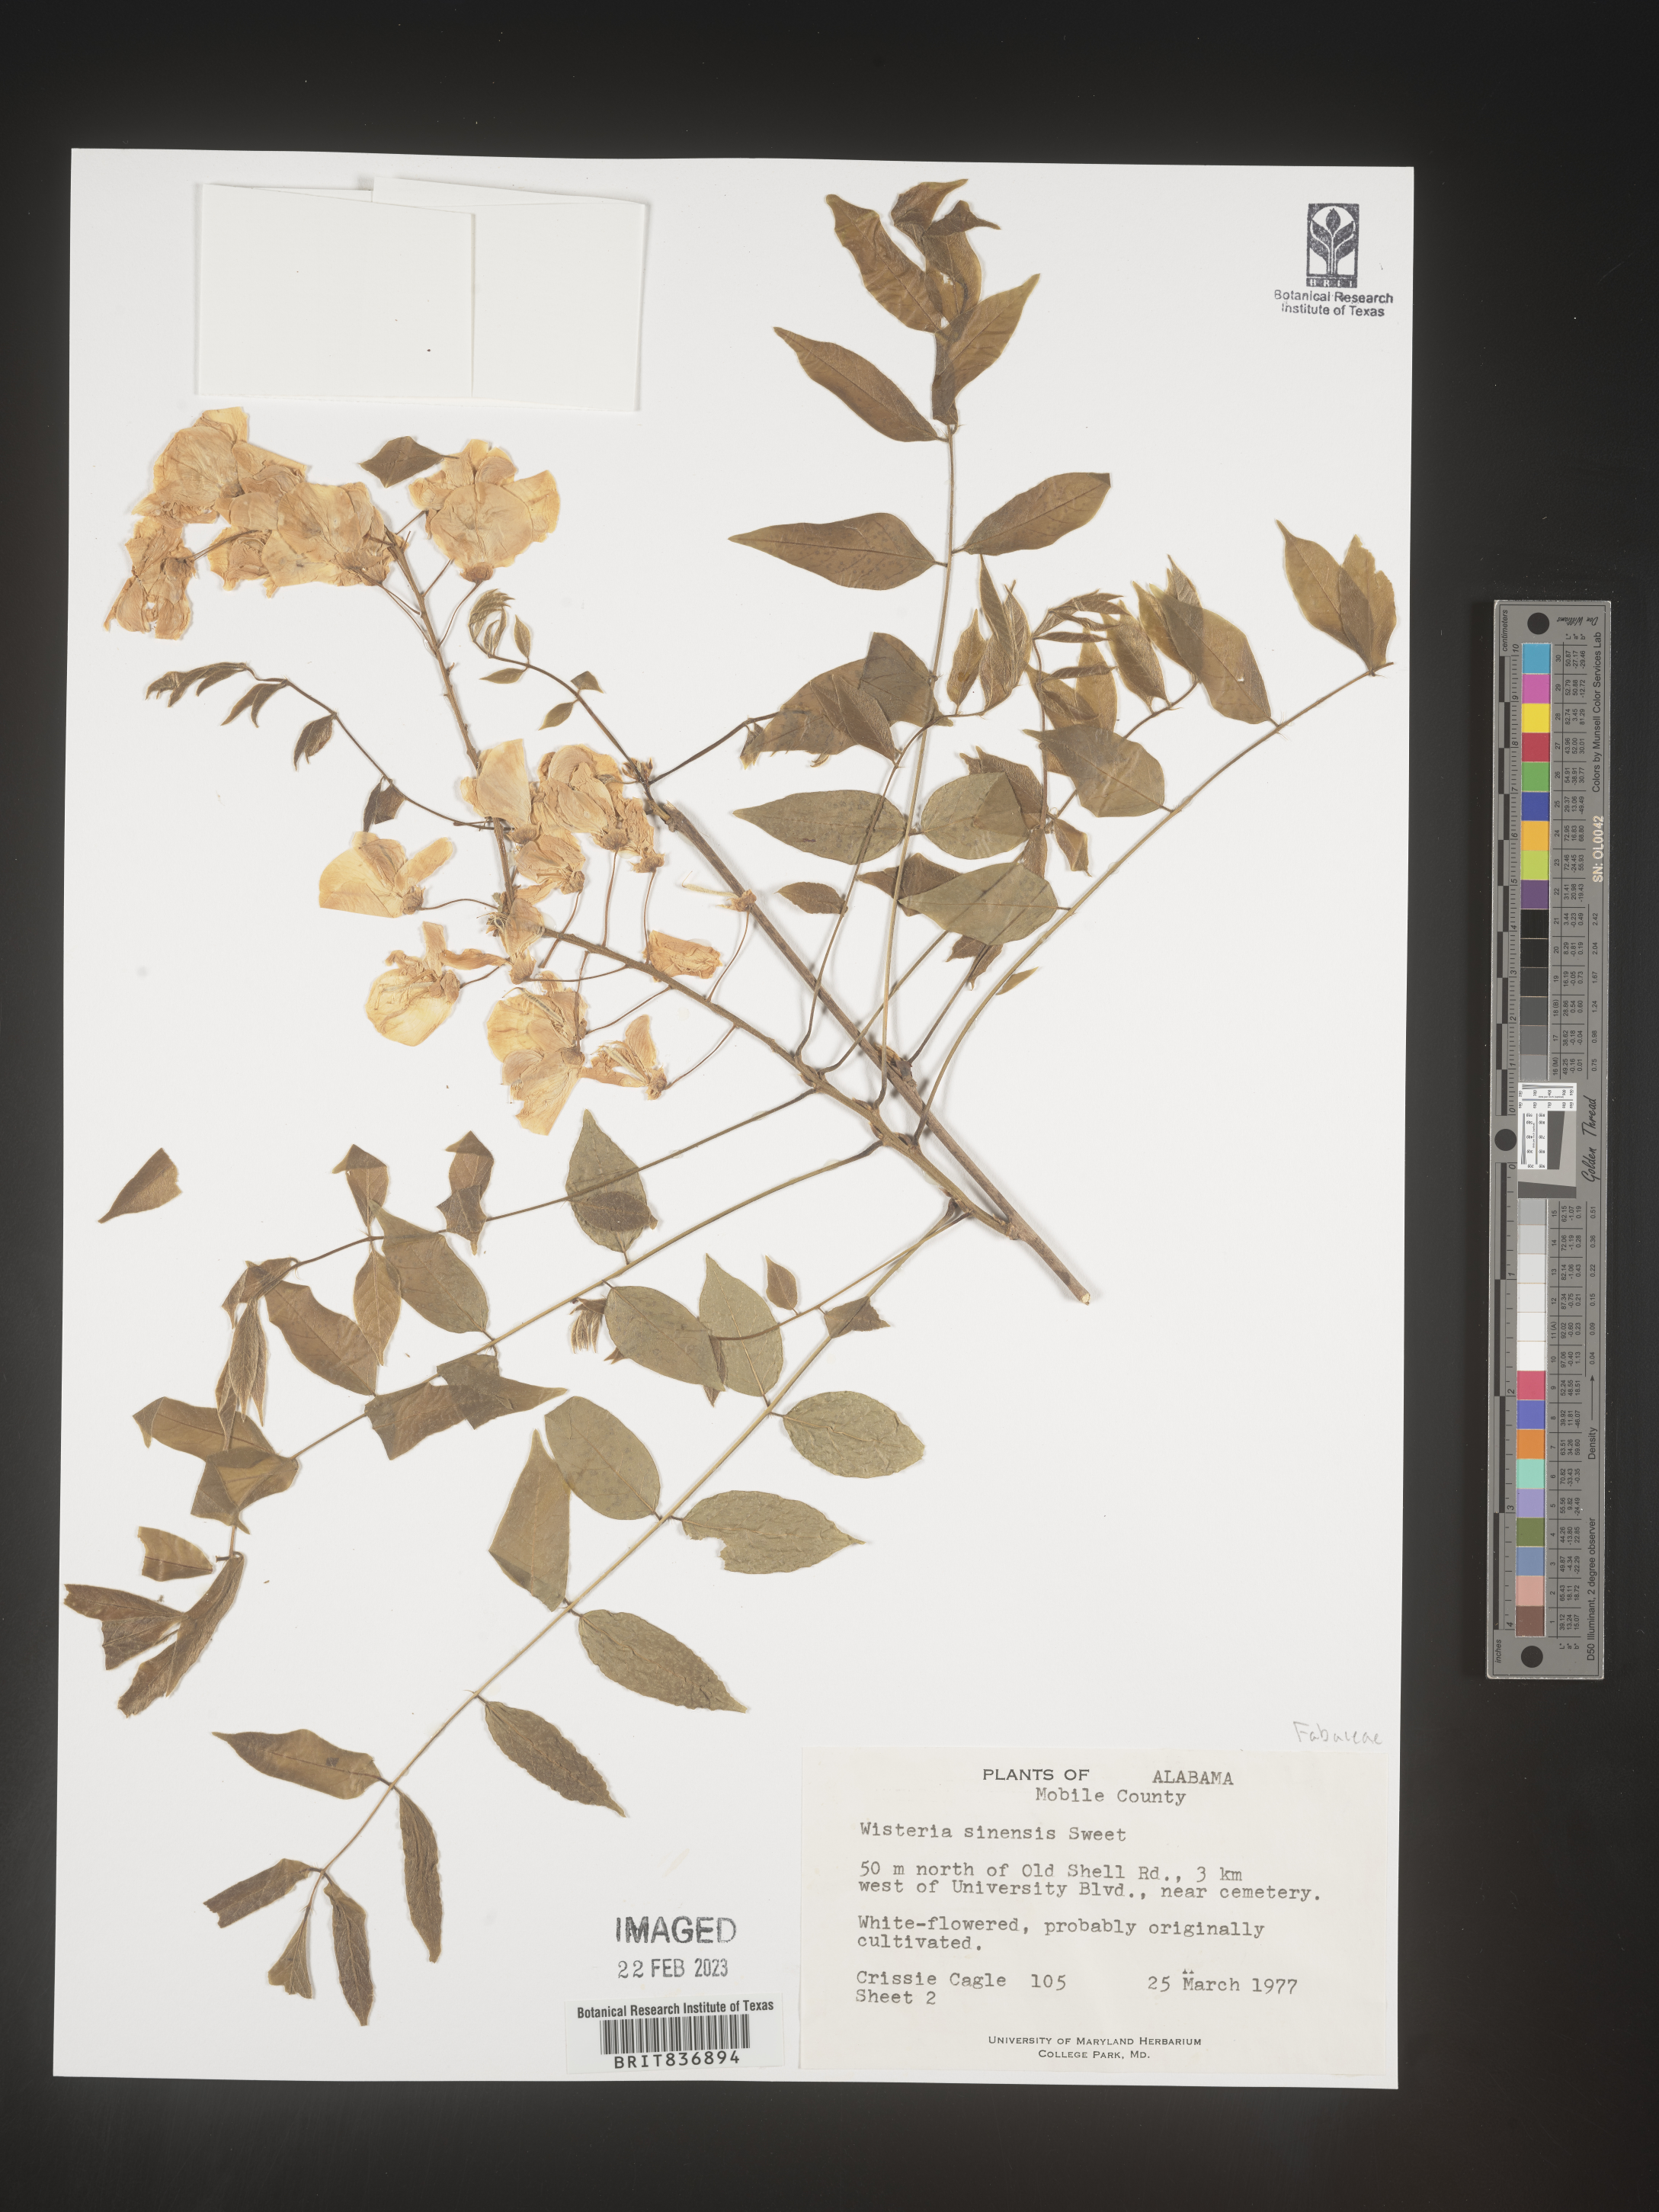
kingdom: Plantae
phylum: Tracheophyta
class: Magnoliopsida
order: Fabales
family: Fabaceae
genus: Wisteria
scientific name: Wisteria sinensis
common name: Chinese wisteria
